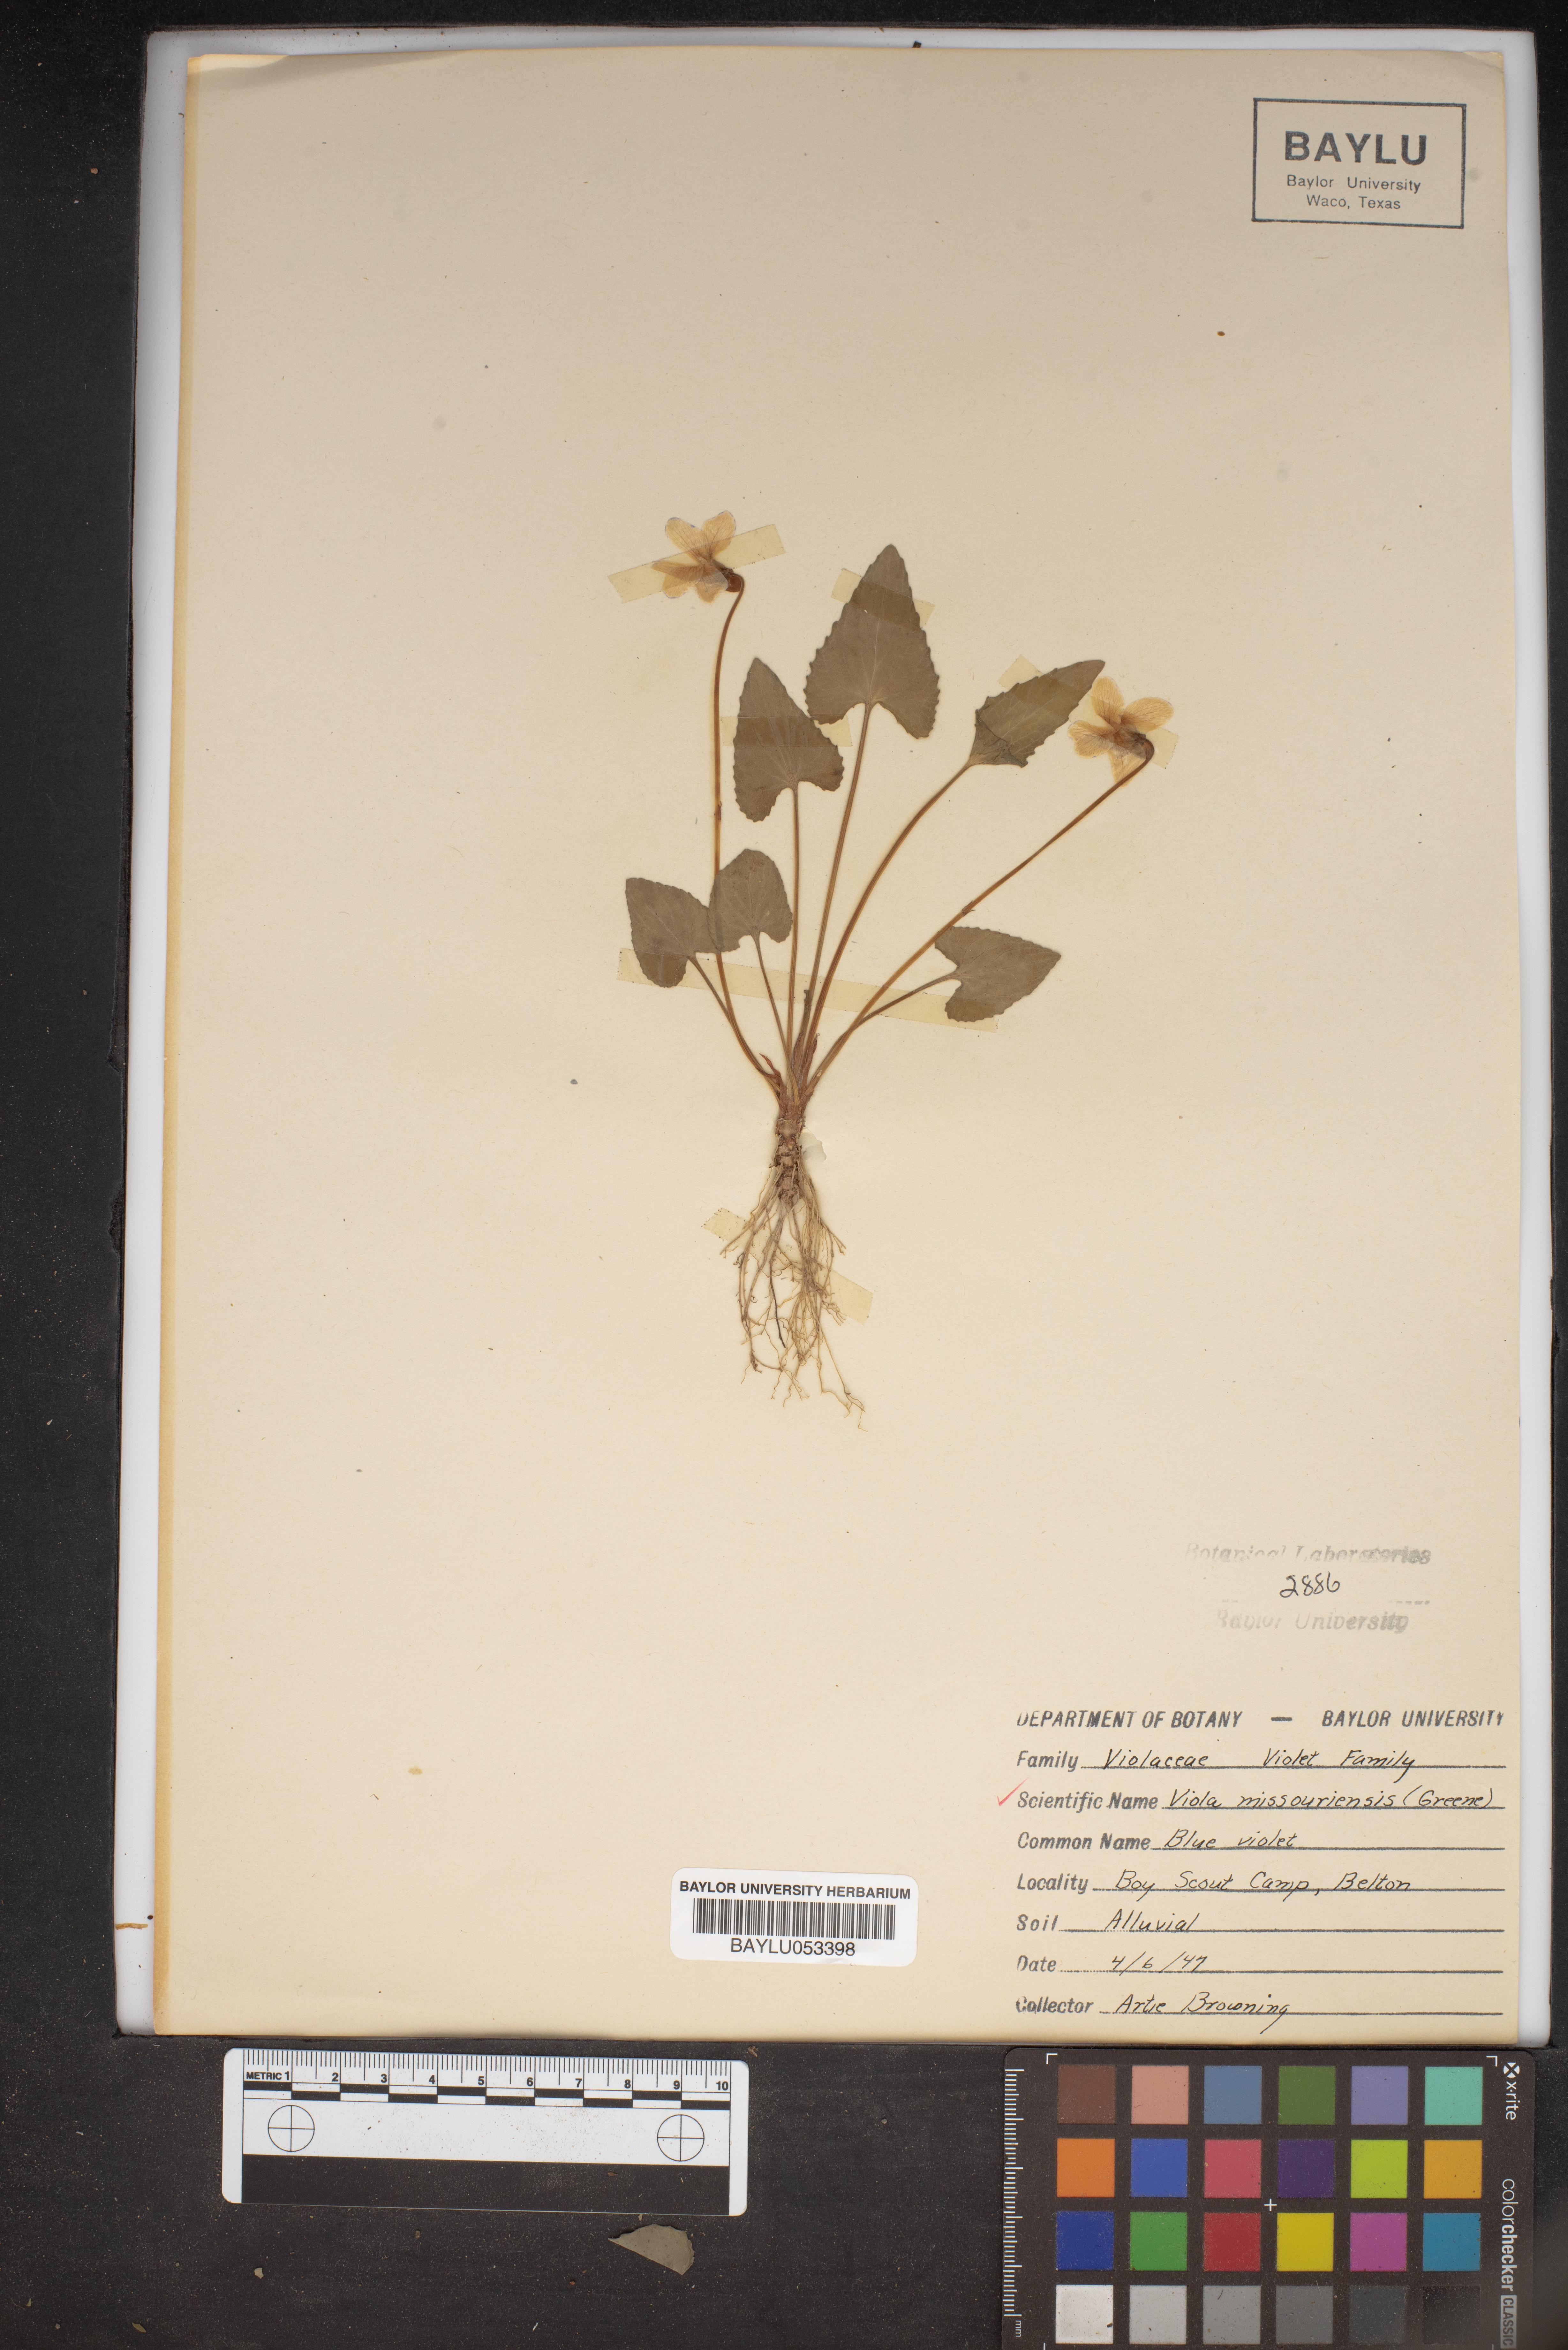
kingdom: Plantae
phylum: Tracheophyta
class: Magnoliopsida
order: Malpighiales
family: Violaceae
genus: Viola
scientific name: Viola missouriensis
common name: Missouri violet
